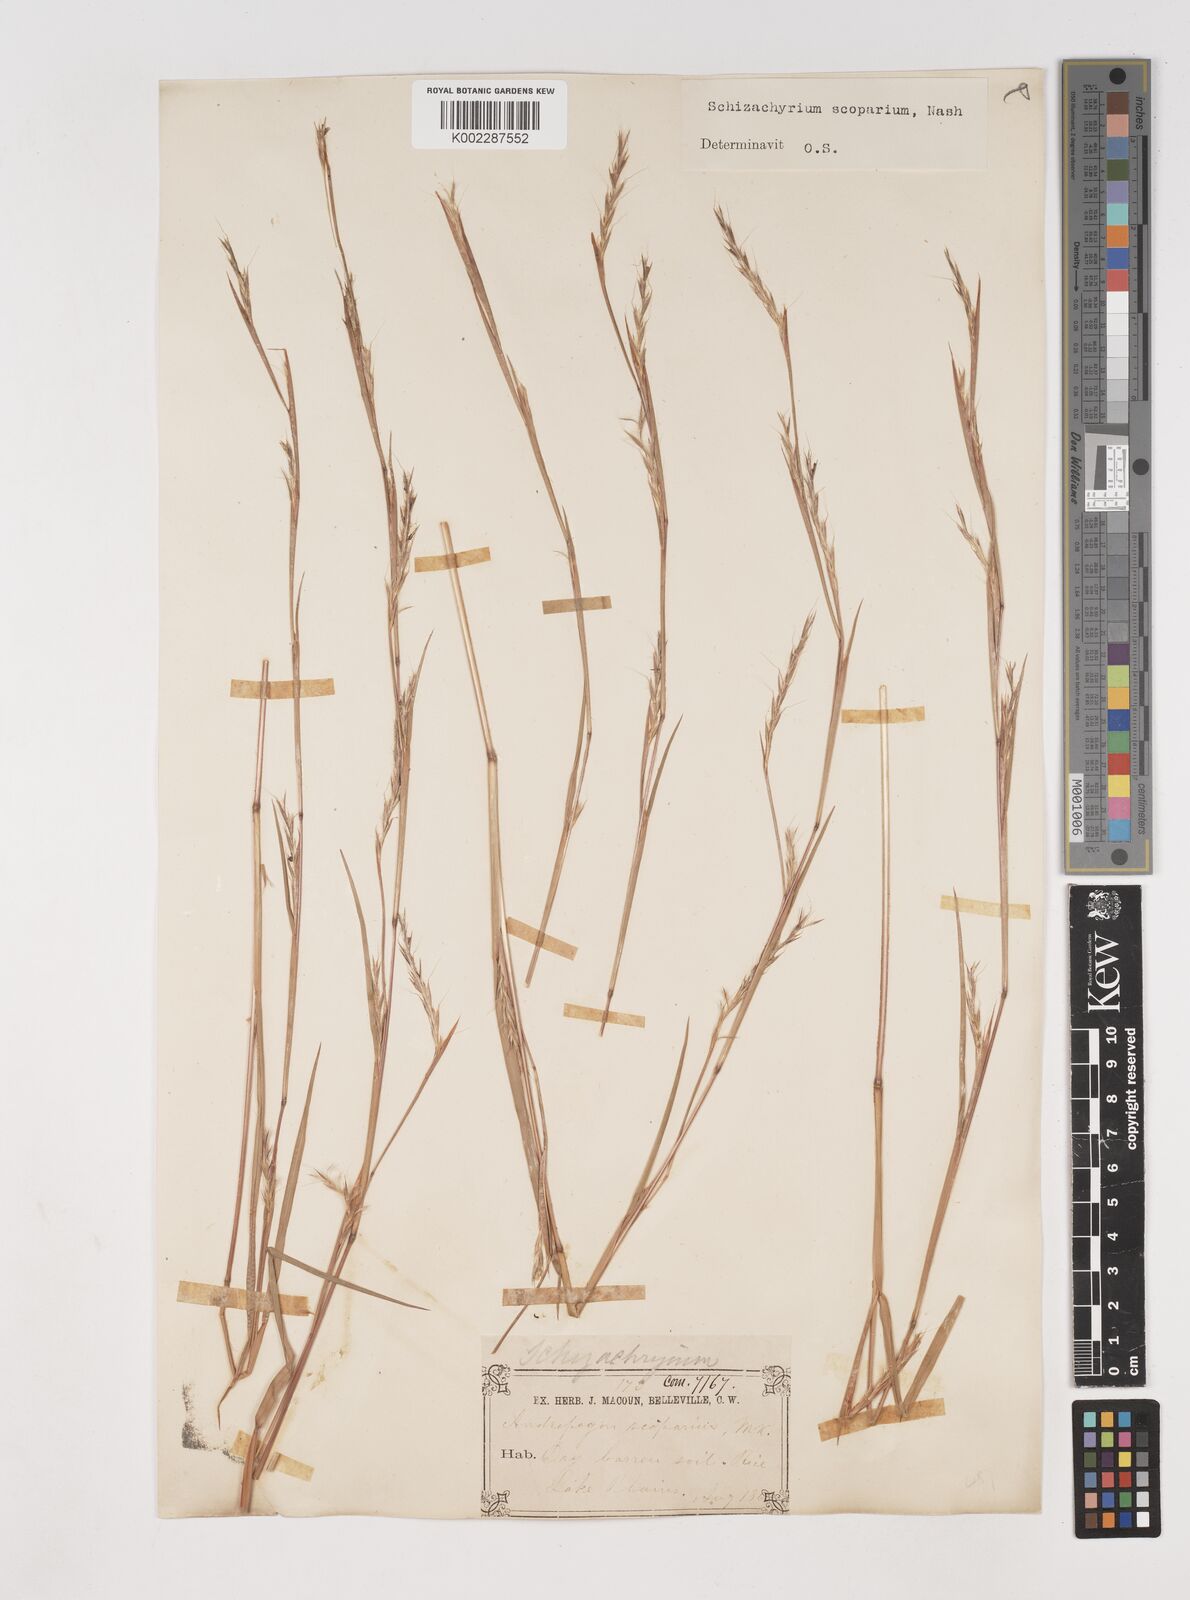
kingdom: Plantae
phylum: Tracheophyta
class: Liliopsida
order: Poales
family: Poaceae
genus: Schizachyrium
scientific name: Schizachyrium scoparium
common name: Little bluestem
